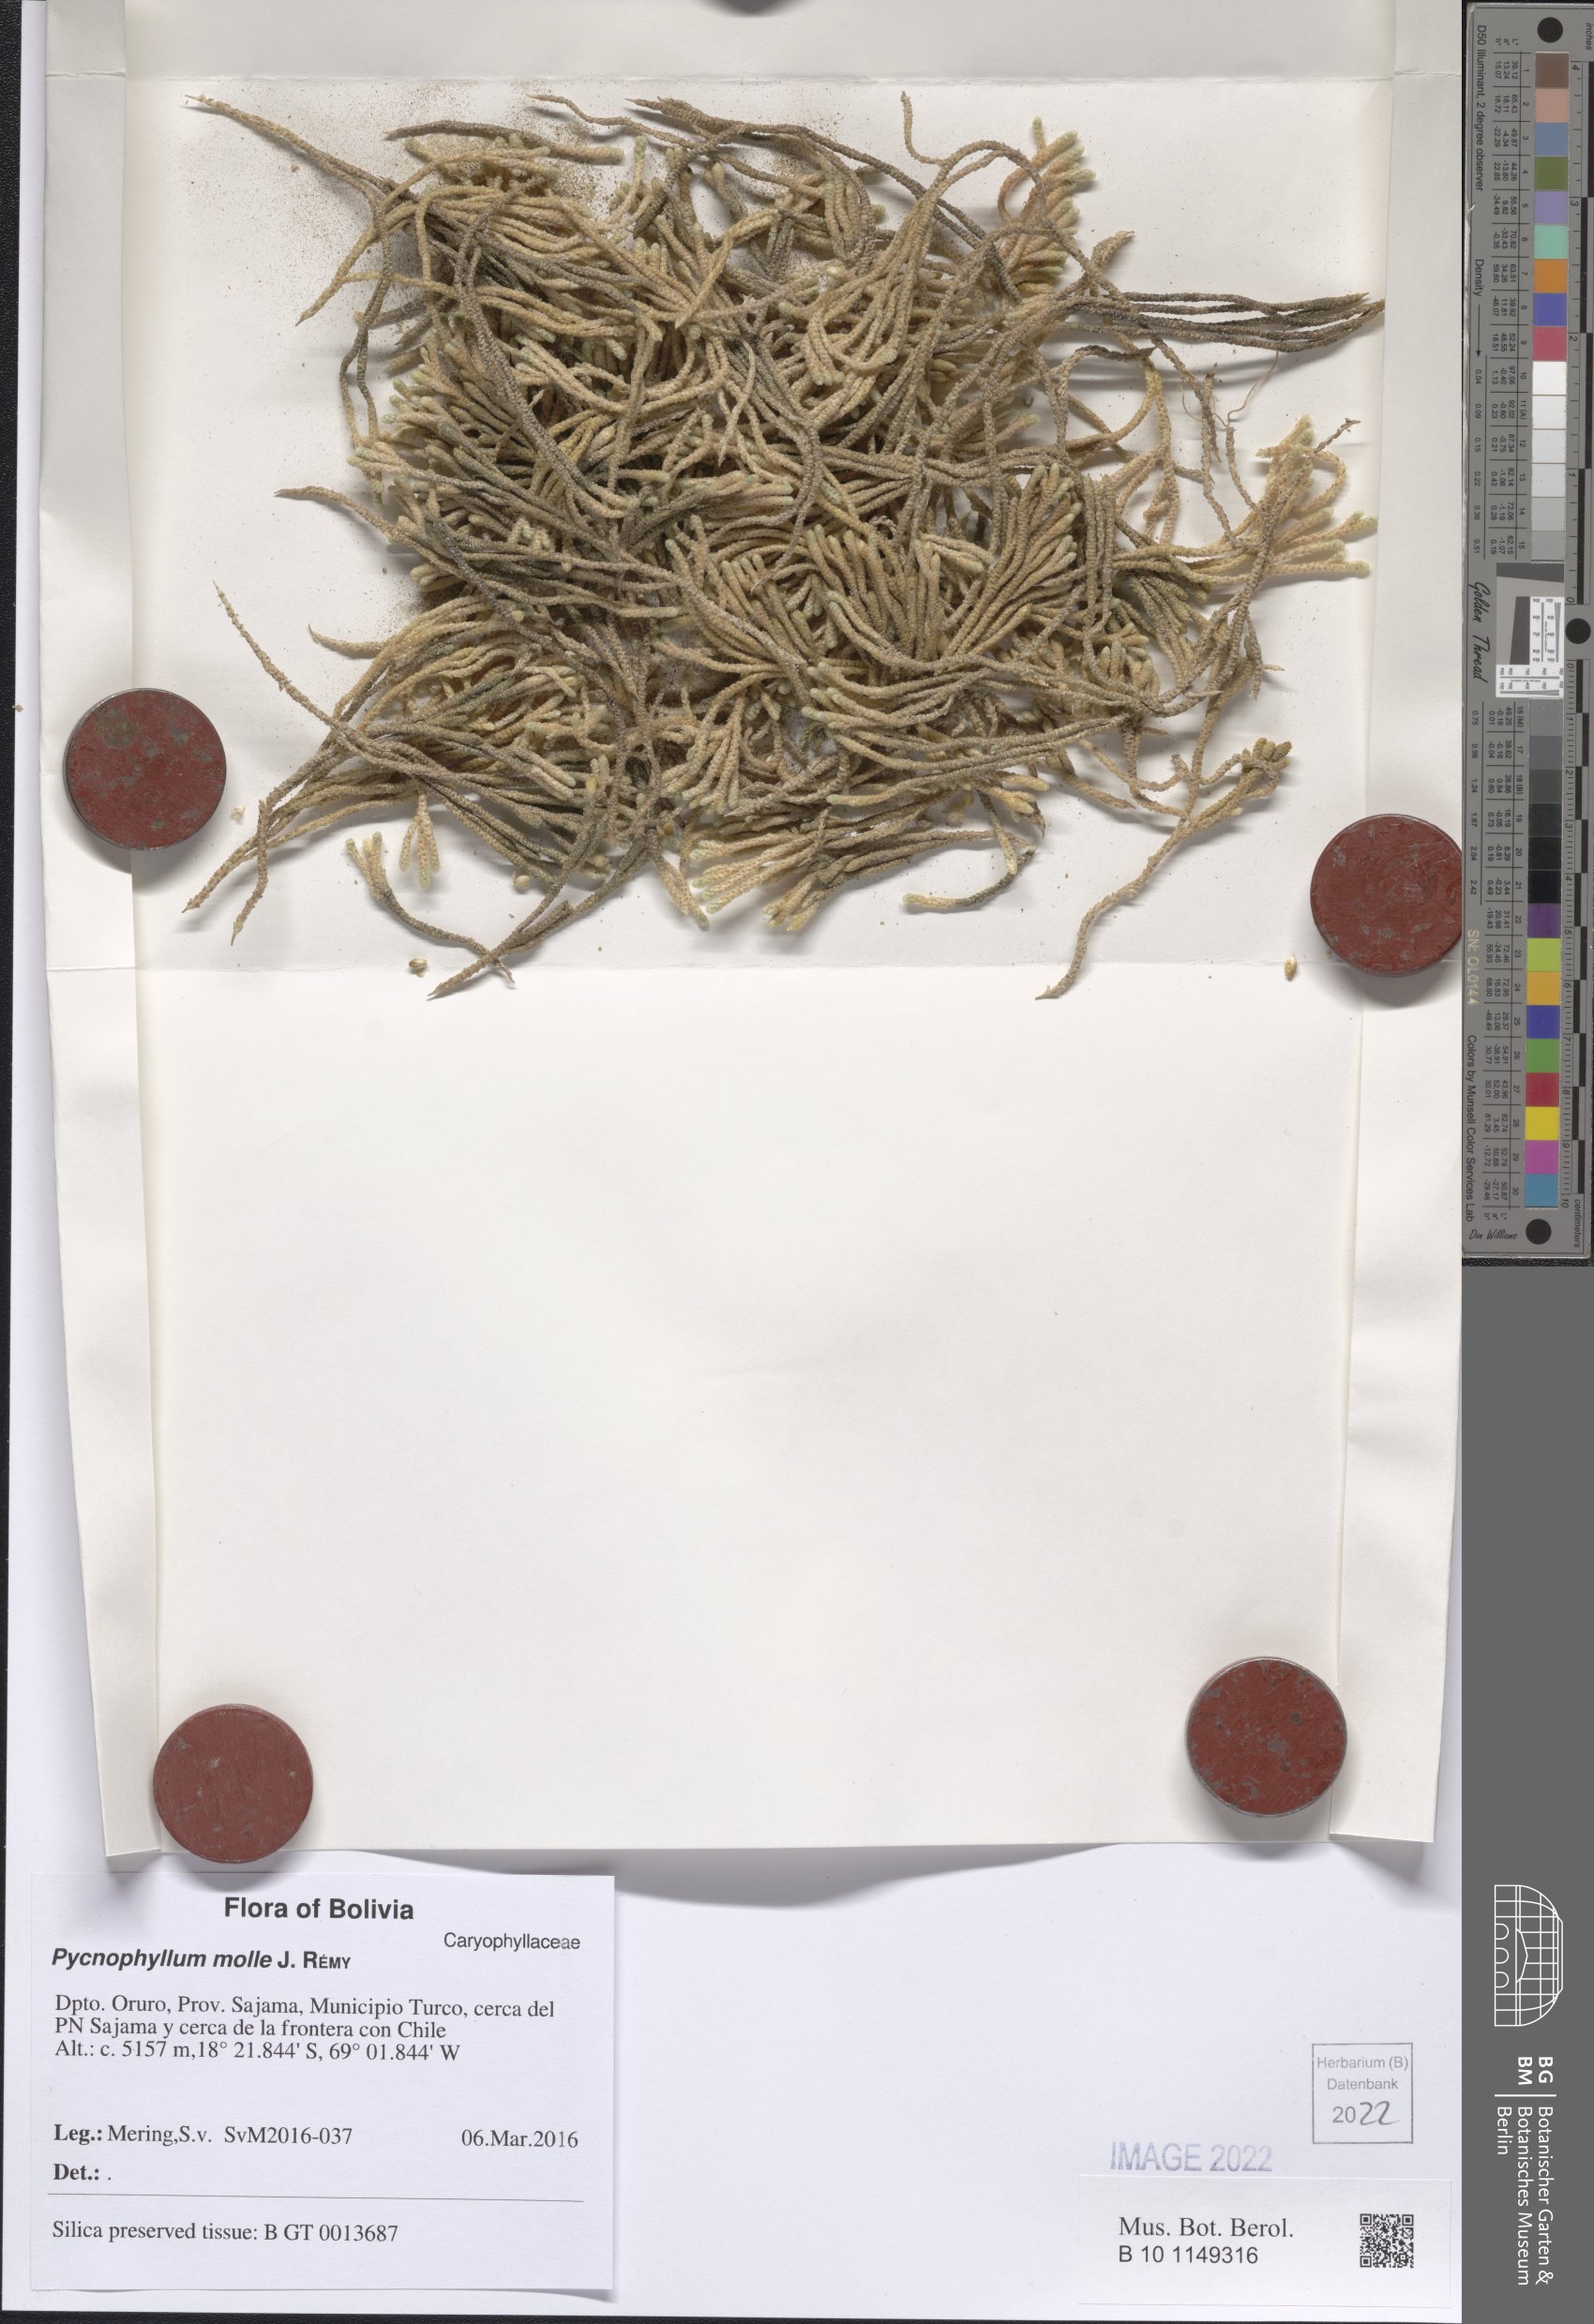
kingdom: Plantae
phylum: Tracheophyta
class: Magnoliopsida
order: Caryophyllales
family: Caryophyllaceae
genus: Pycnophyllum
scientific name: Pycnophyllum
